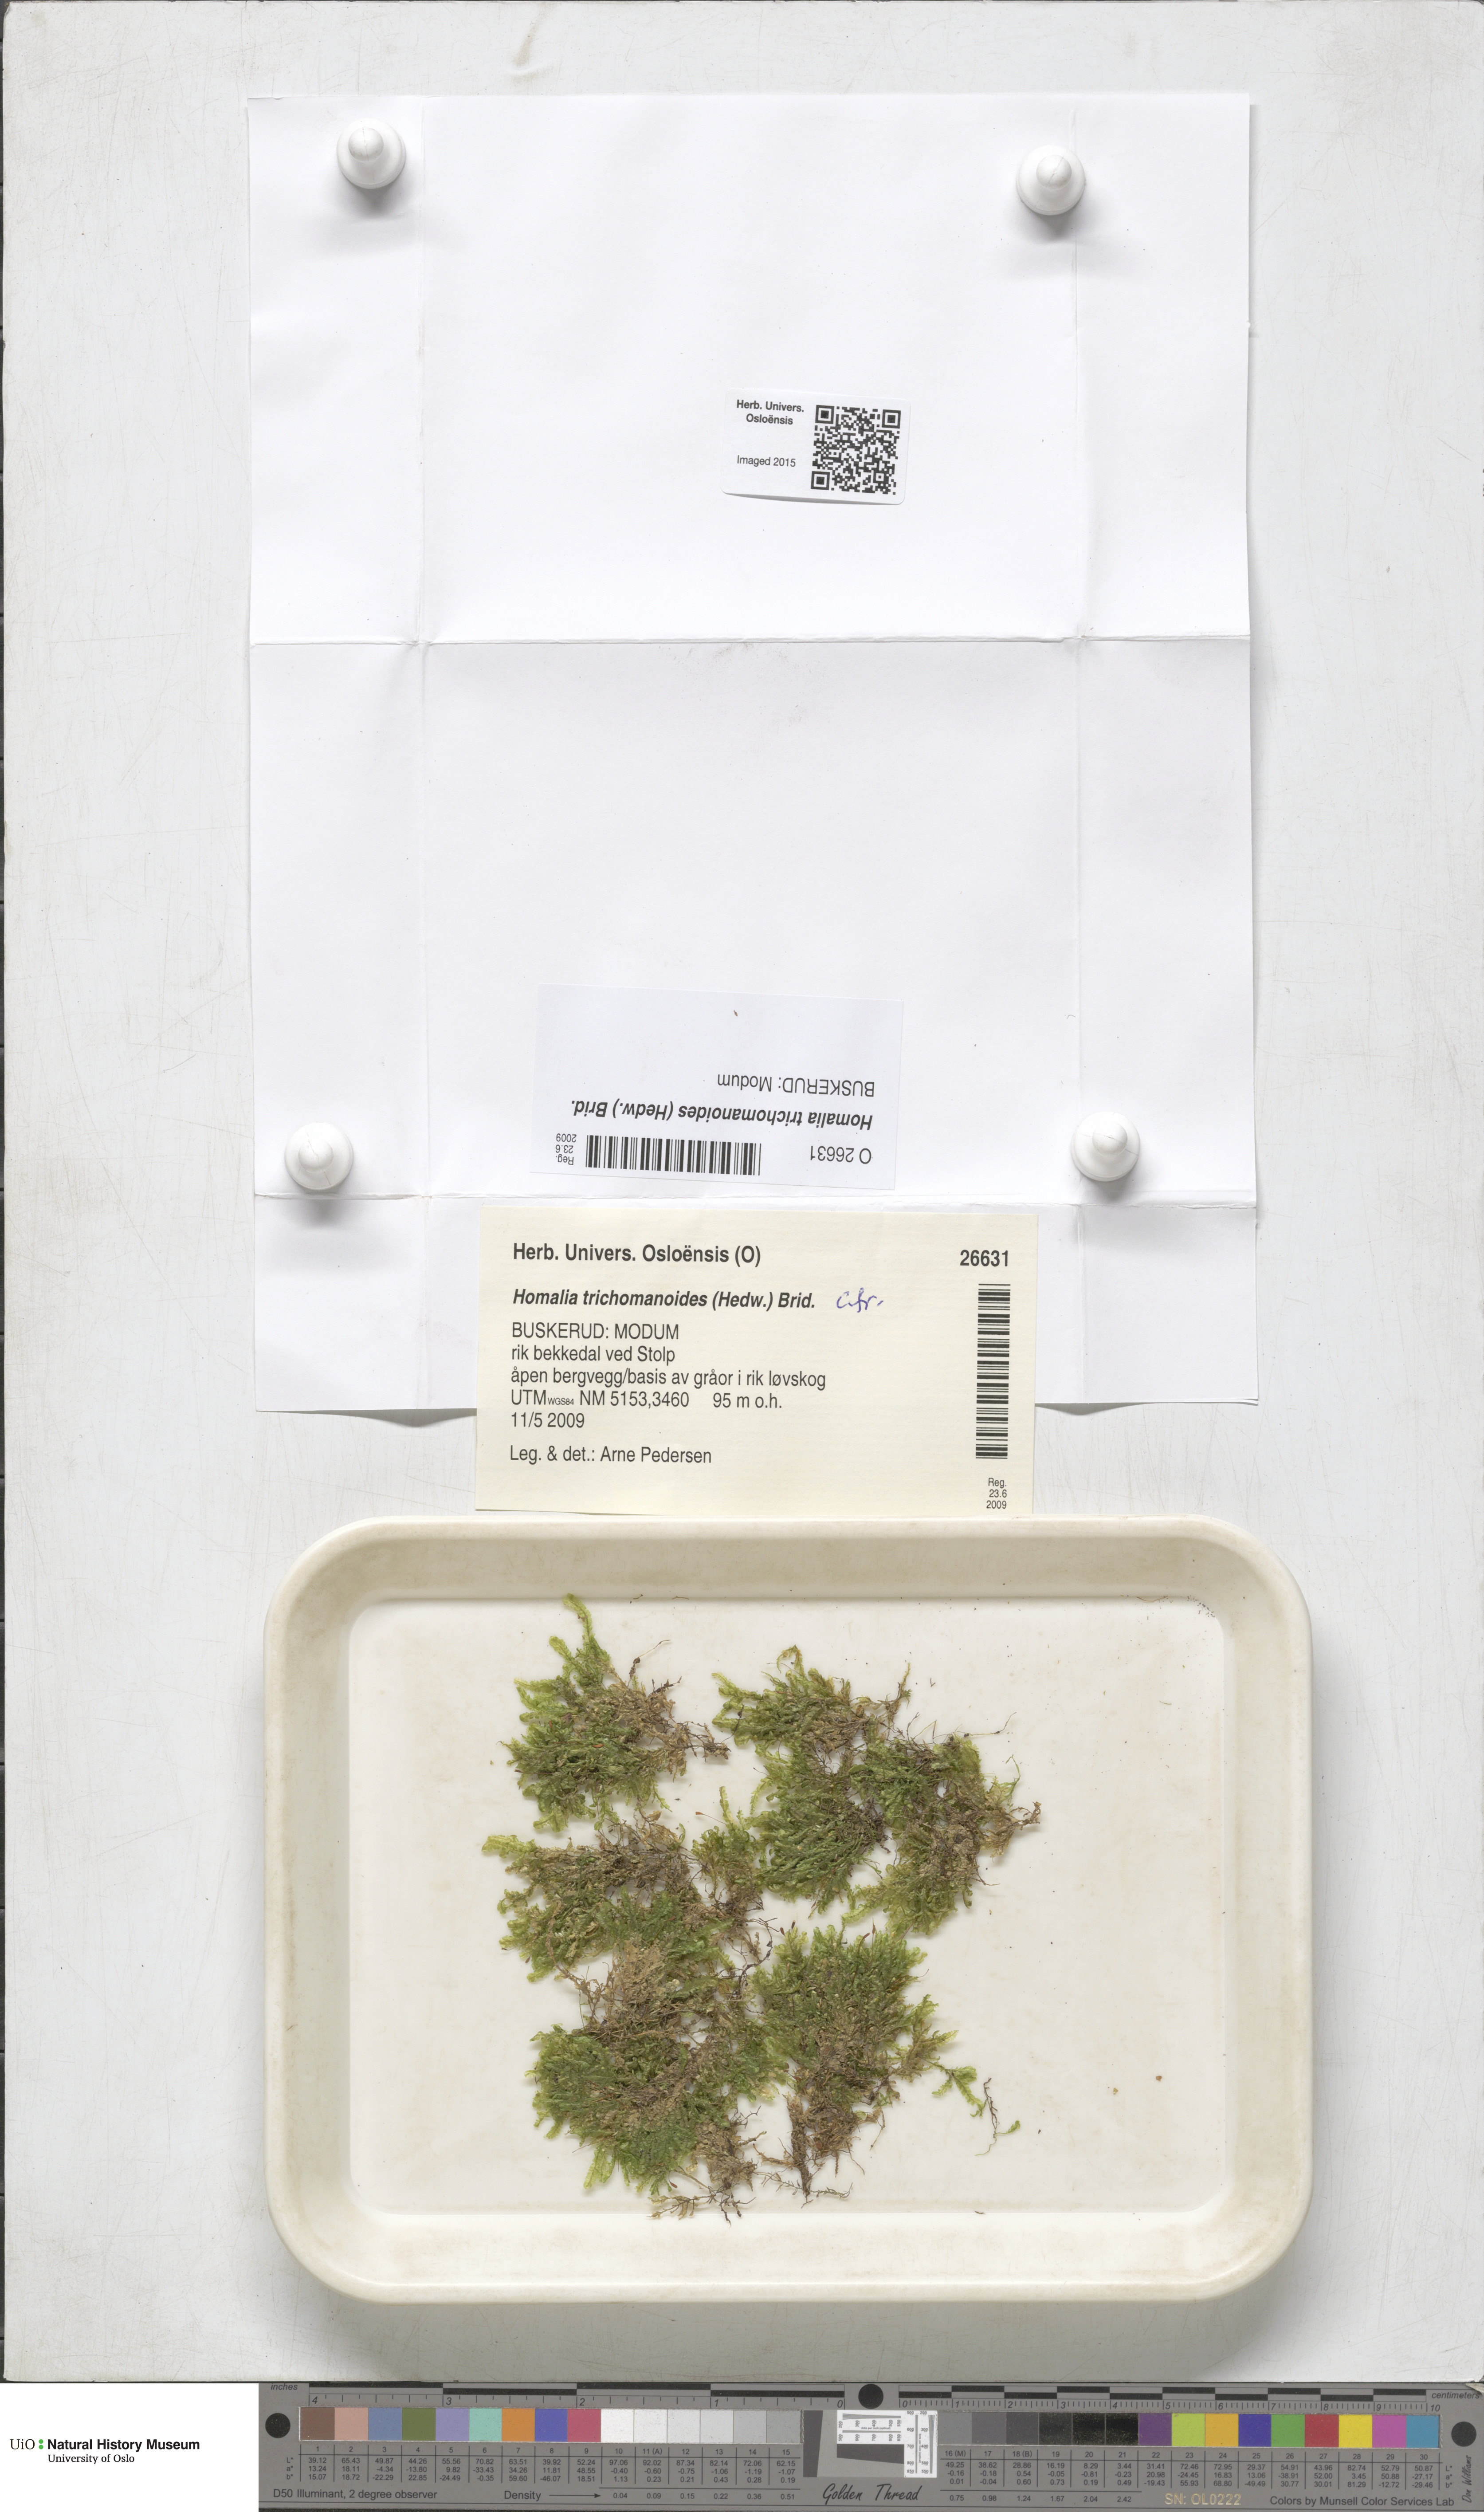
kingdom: Plantae
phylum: Bryophyta
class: Bryopsida
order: Hypnales
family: Neckeraceae
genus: Homalia
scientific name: Homalia trichomanoides
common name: Lime homalia moss
